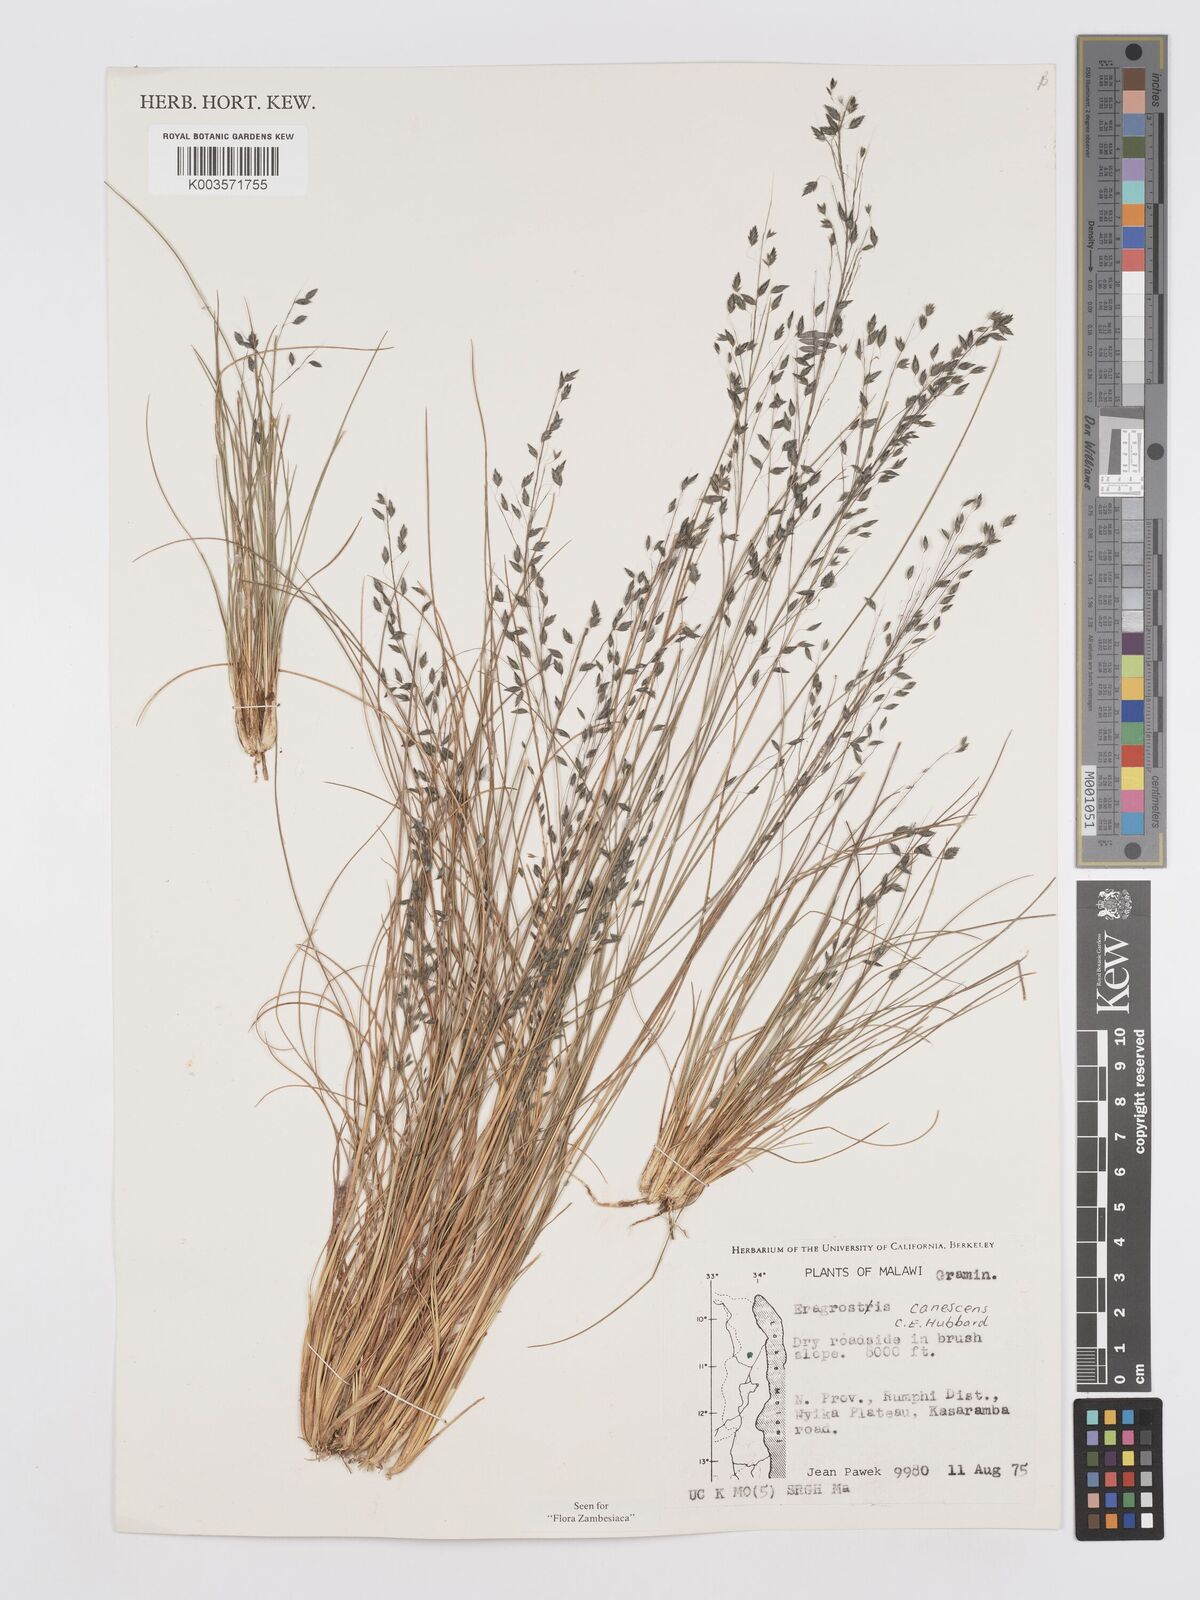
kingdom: Plantae
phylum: Tracheophyta
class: Liliopsida
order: Poales
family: Poaceae
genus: Eragrostis
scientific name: Eragrostis canescens
